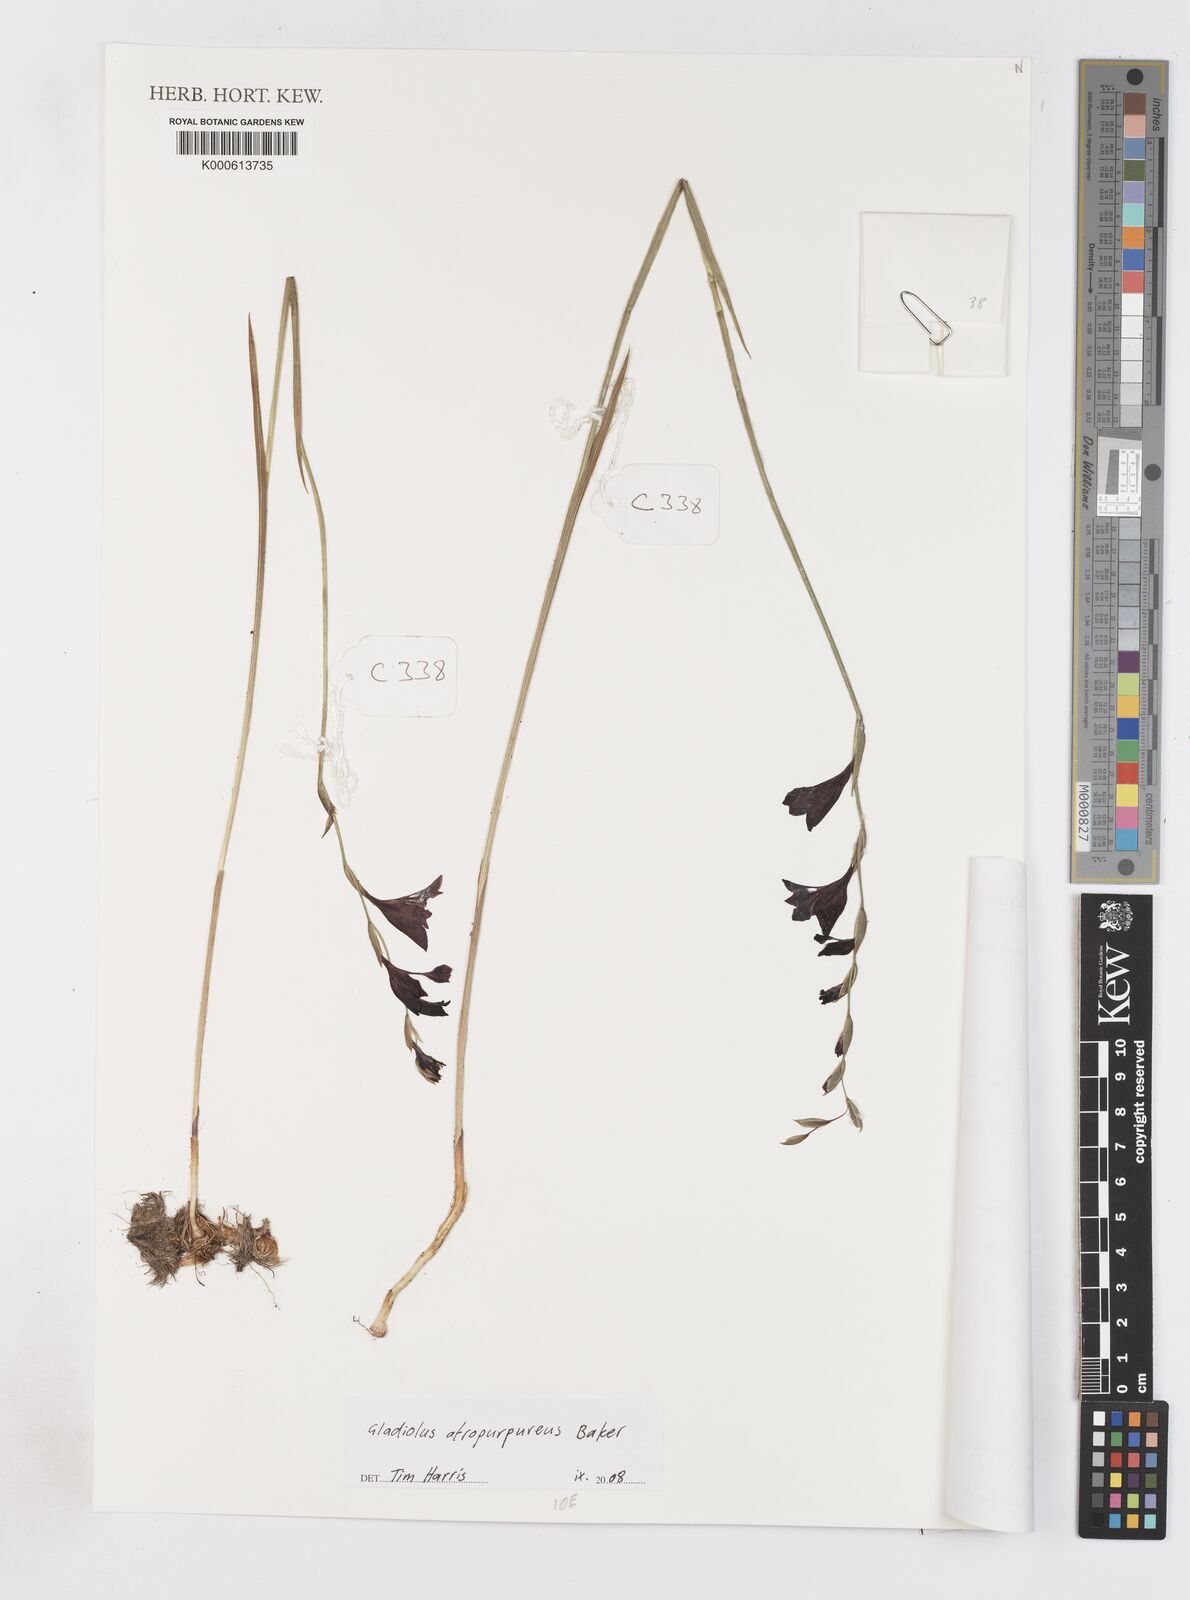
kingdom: Plantae
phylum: Tracheophyta
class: Liliopsida
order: Asparagales
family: Iridaceae
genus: Gladiolus
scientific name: Gladiolus atropurpureus
